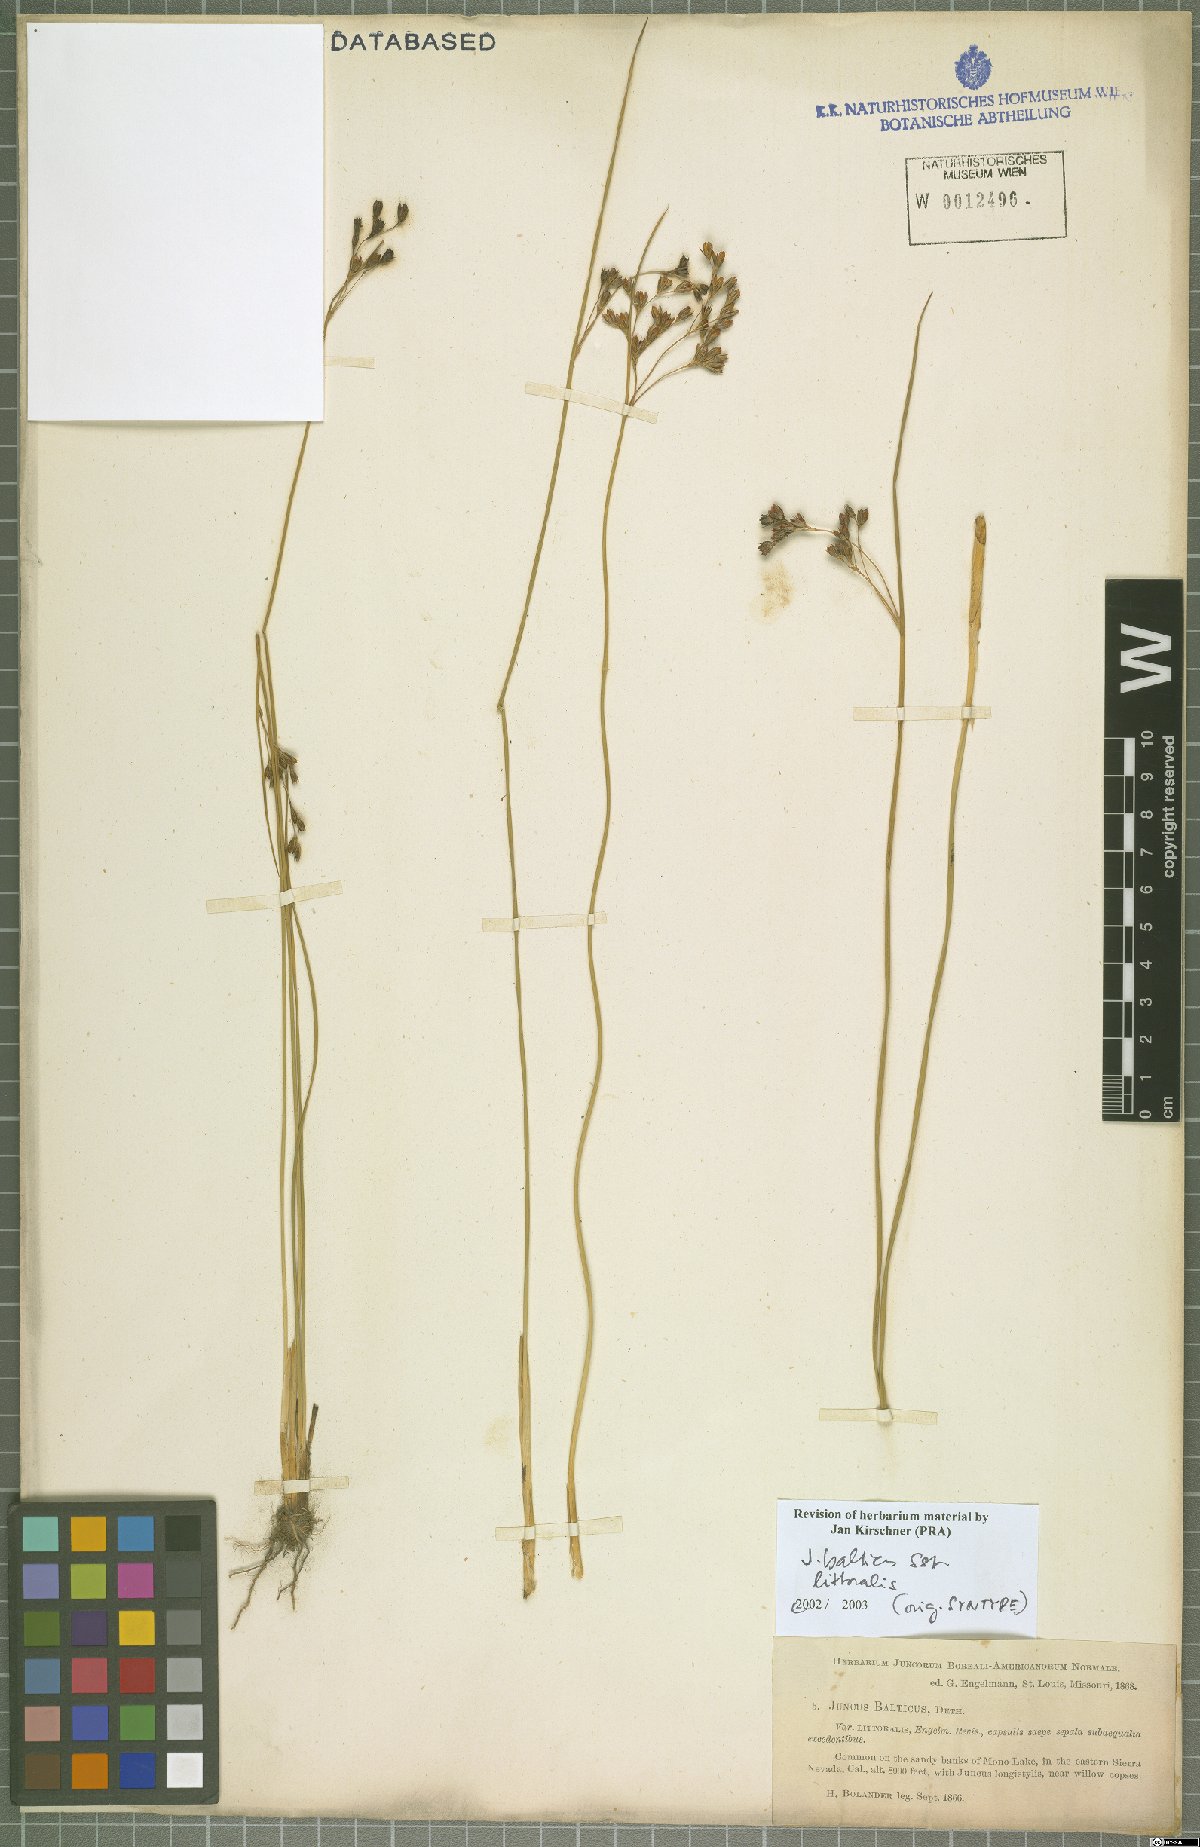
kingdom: Plantae
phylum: Tracheophyta
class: Liliopsida
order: Poales
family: Juncaceae
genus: Juncus
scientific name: Juncus balticus
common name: Baltic rush
